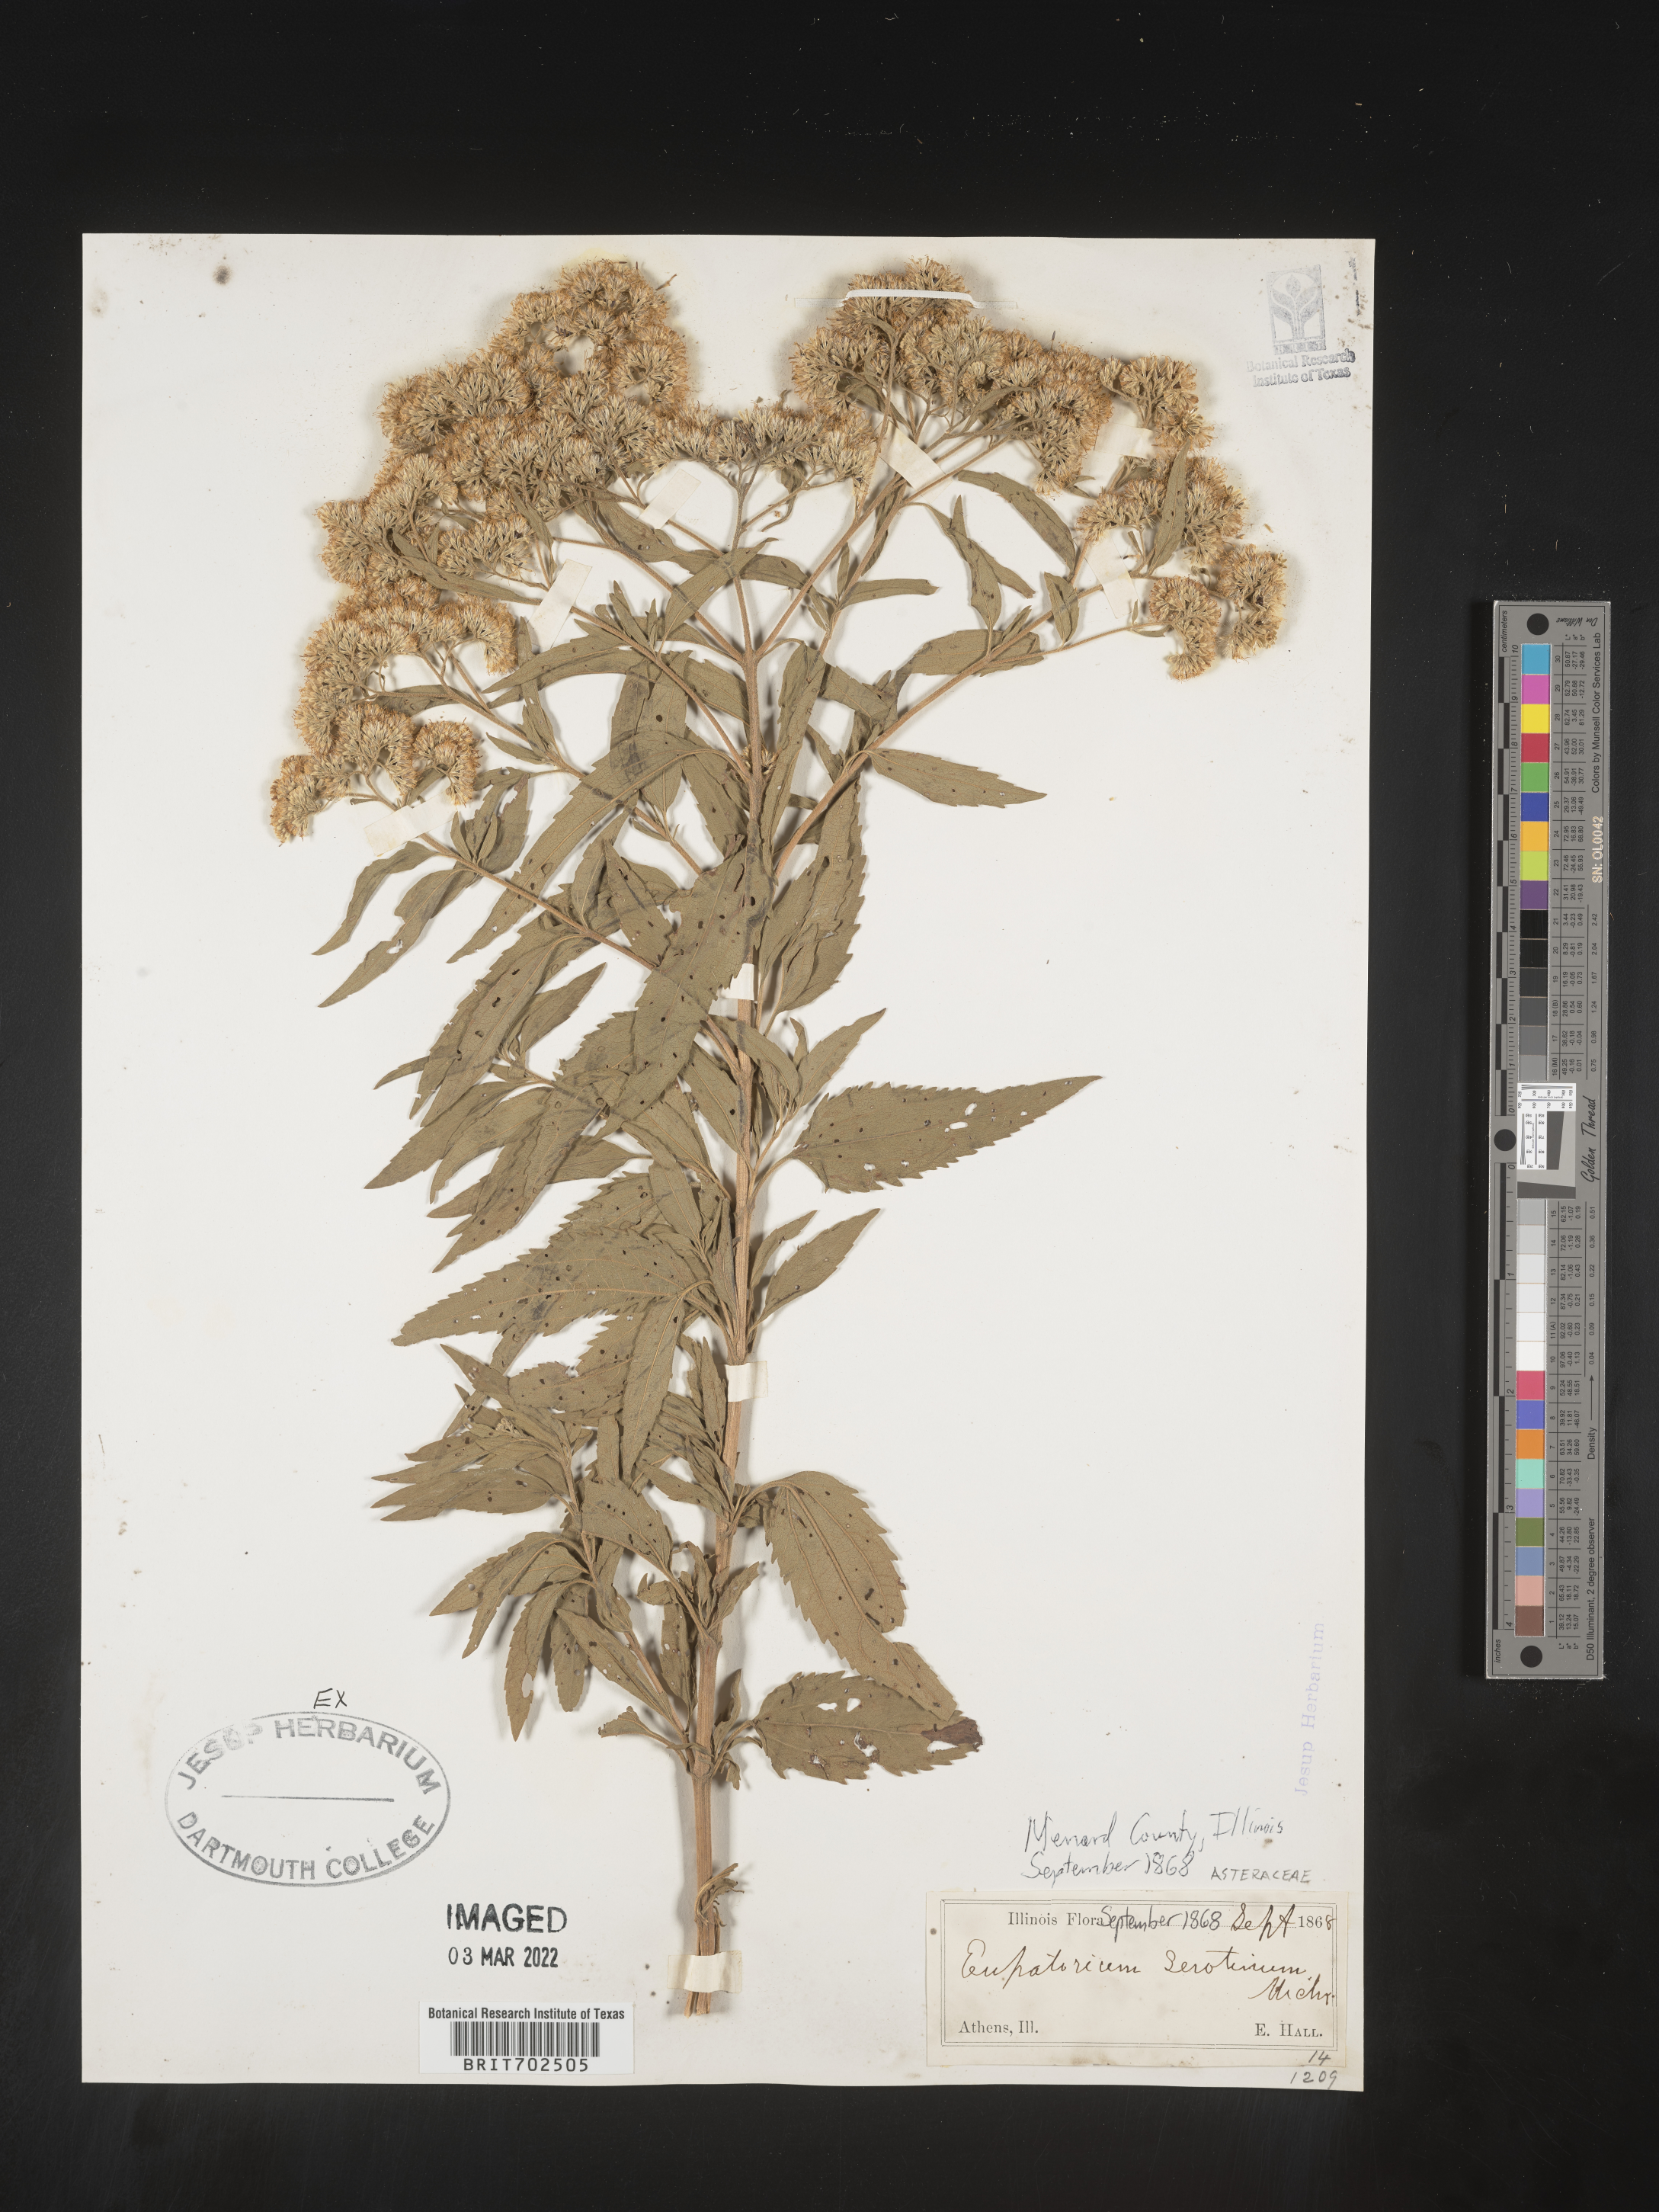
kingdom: Plantae
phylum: Tracheophyta
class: Magnoliopsida
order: Asterales
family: Asteraceae
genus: Eupatorium
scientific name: Eupatorium serotinum
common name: Late boneset
